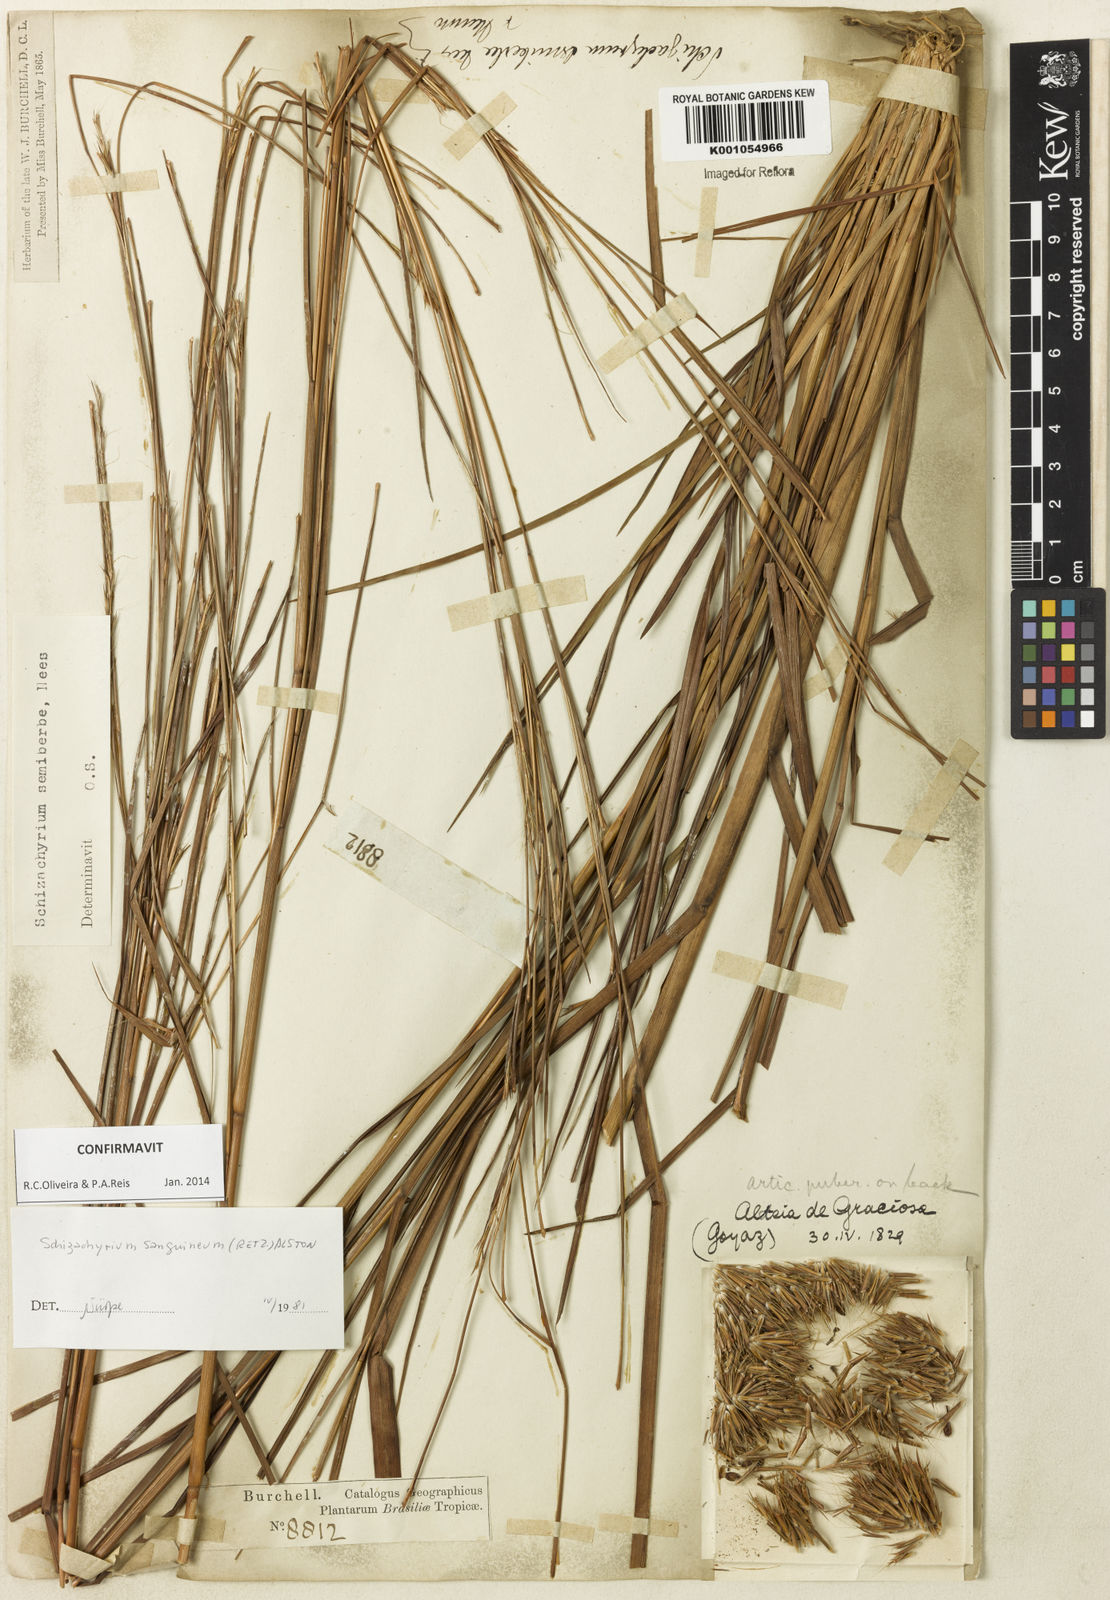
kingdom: Plantae
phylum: Tracheophyta
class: Liliopsida
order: Poales
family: Poaceae
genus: Schizachyrium
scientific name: Schizachyrium sanguineum
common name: Crimson bluestem
